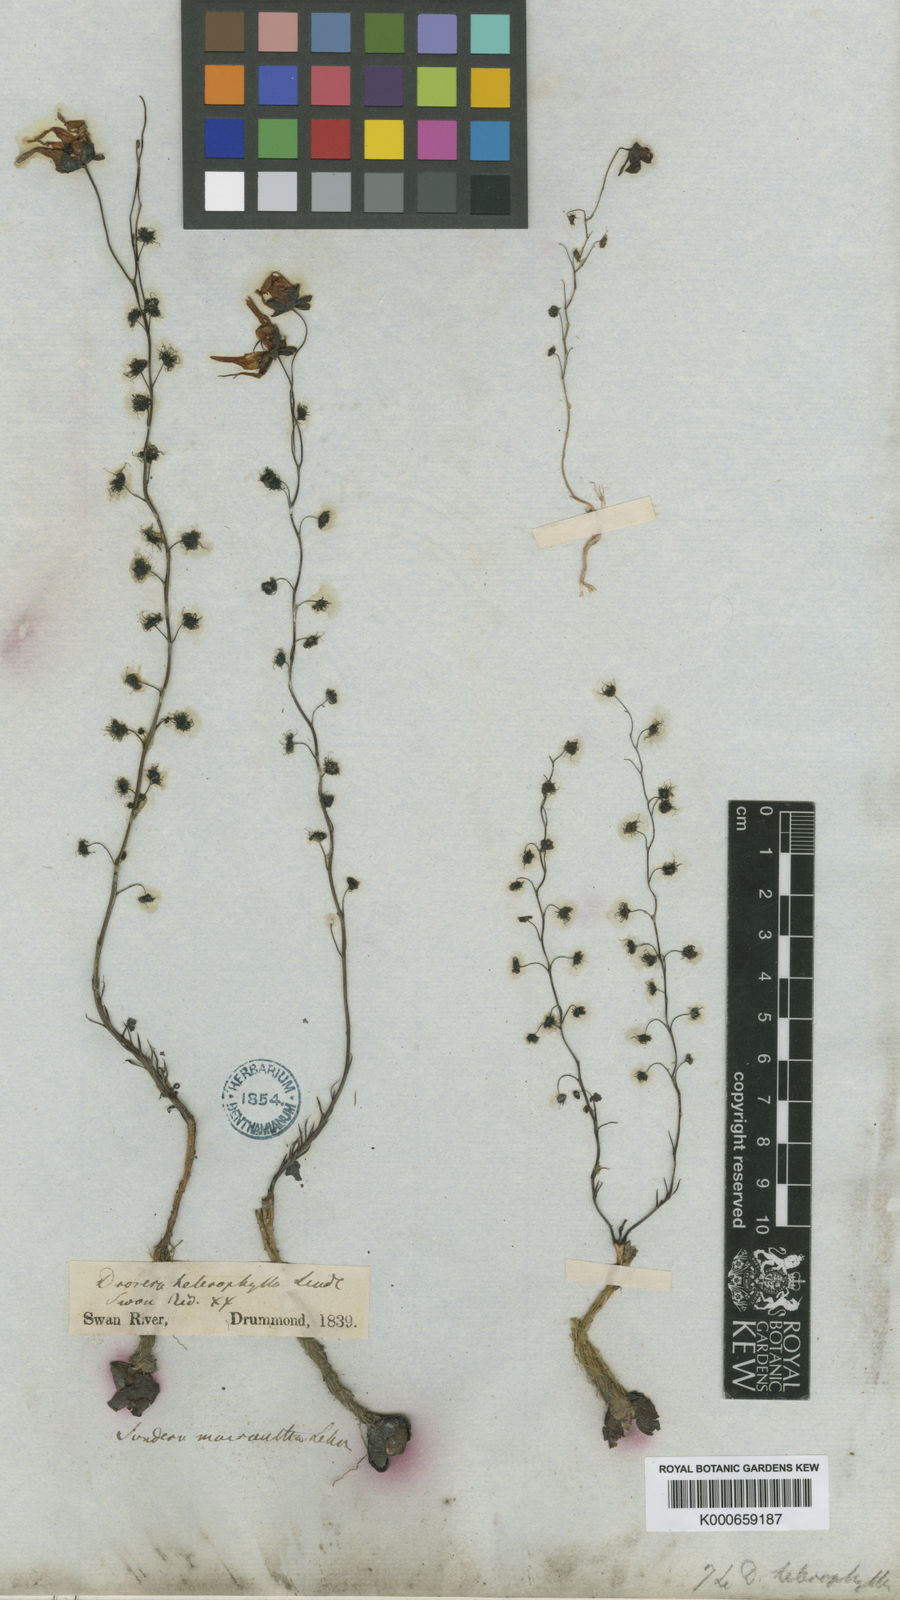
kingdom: Plantae
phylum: Tracheophyta
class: Magnoliopsida
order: Caryophyllales
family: Droseraceae
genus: Drosera
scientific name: Drosera heterophylla
